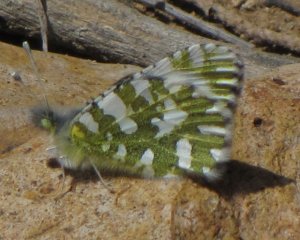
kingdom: Animalia
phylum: Arthropoda
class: Insecta
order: Lepidoptera
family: Pieridae
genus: Euchloe
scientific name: Euchloe lotta
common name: Desert Marble
